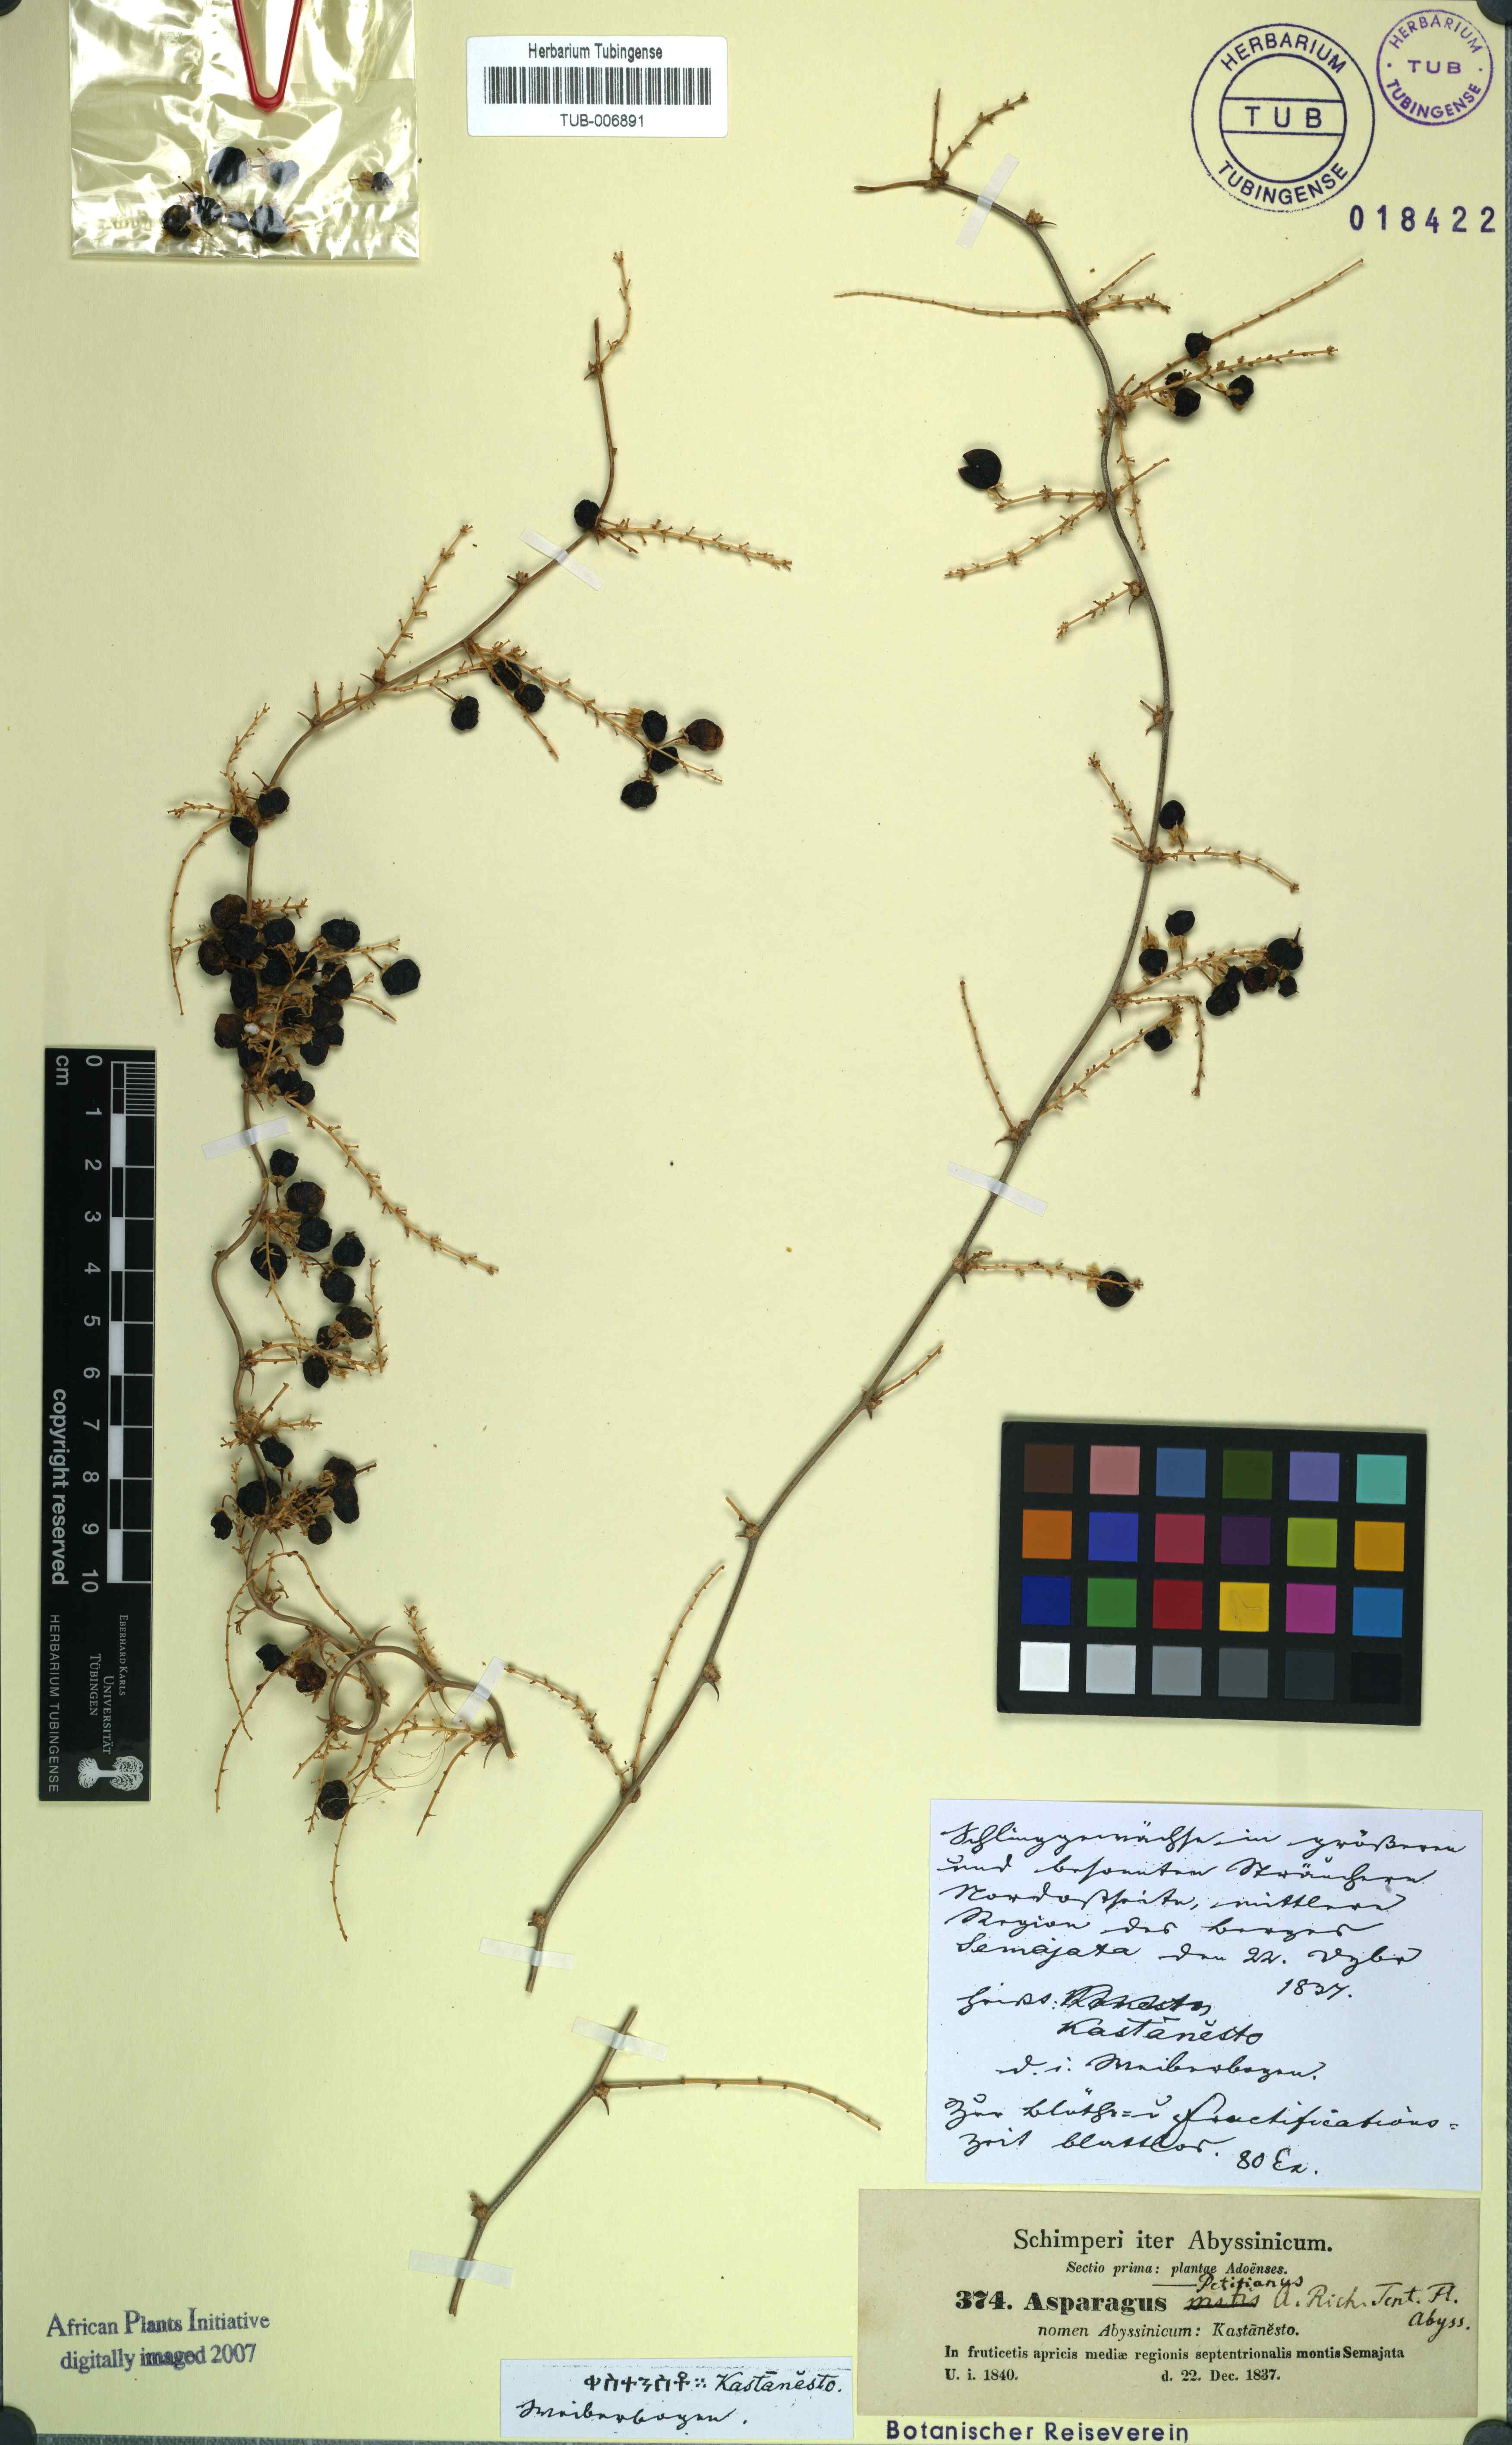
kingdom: Plantae
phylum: Tracheophyta
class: Liliopsida
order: Asparagales
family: Asparagaceae
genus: Asparagus
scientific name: Asparagus racemosus
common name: Asparagus-fern
